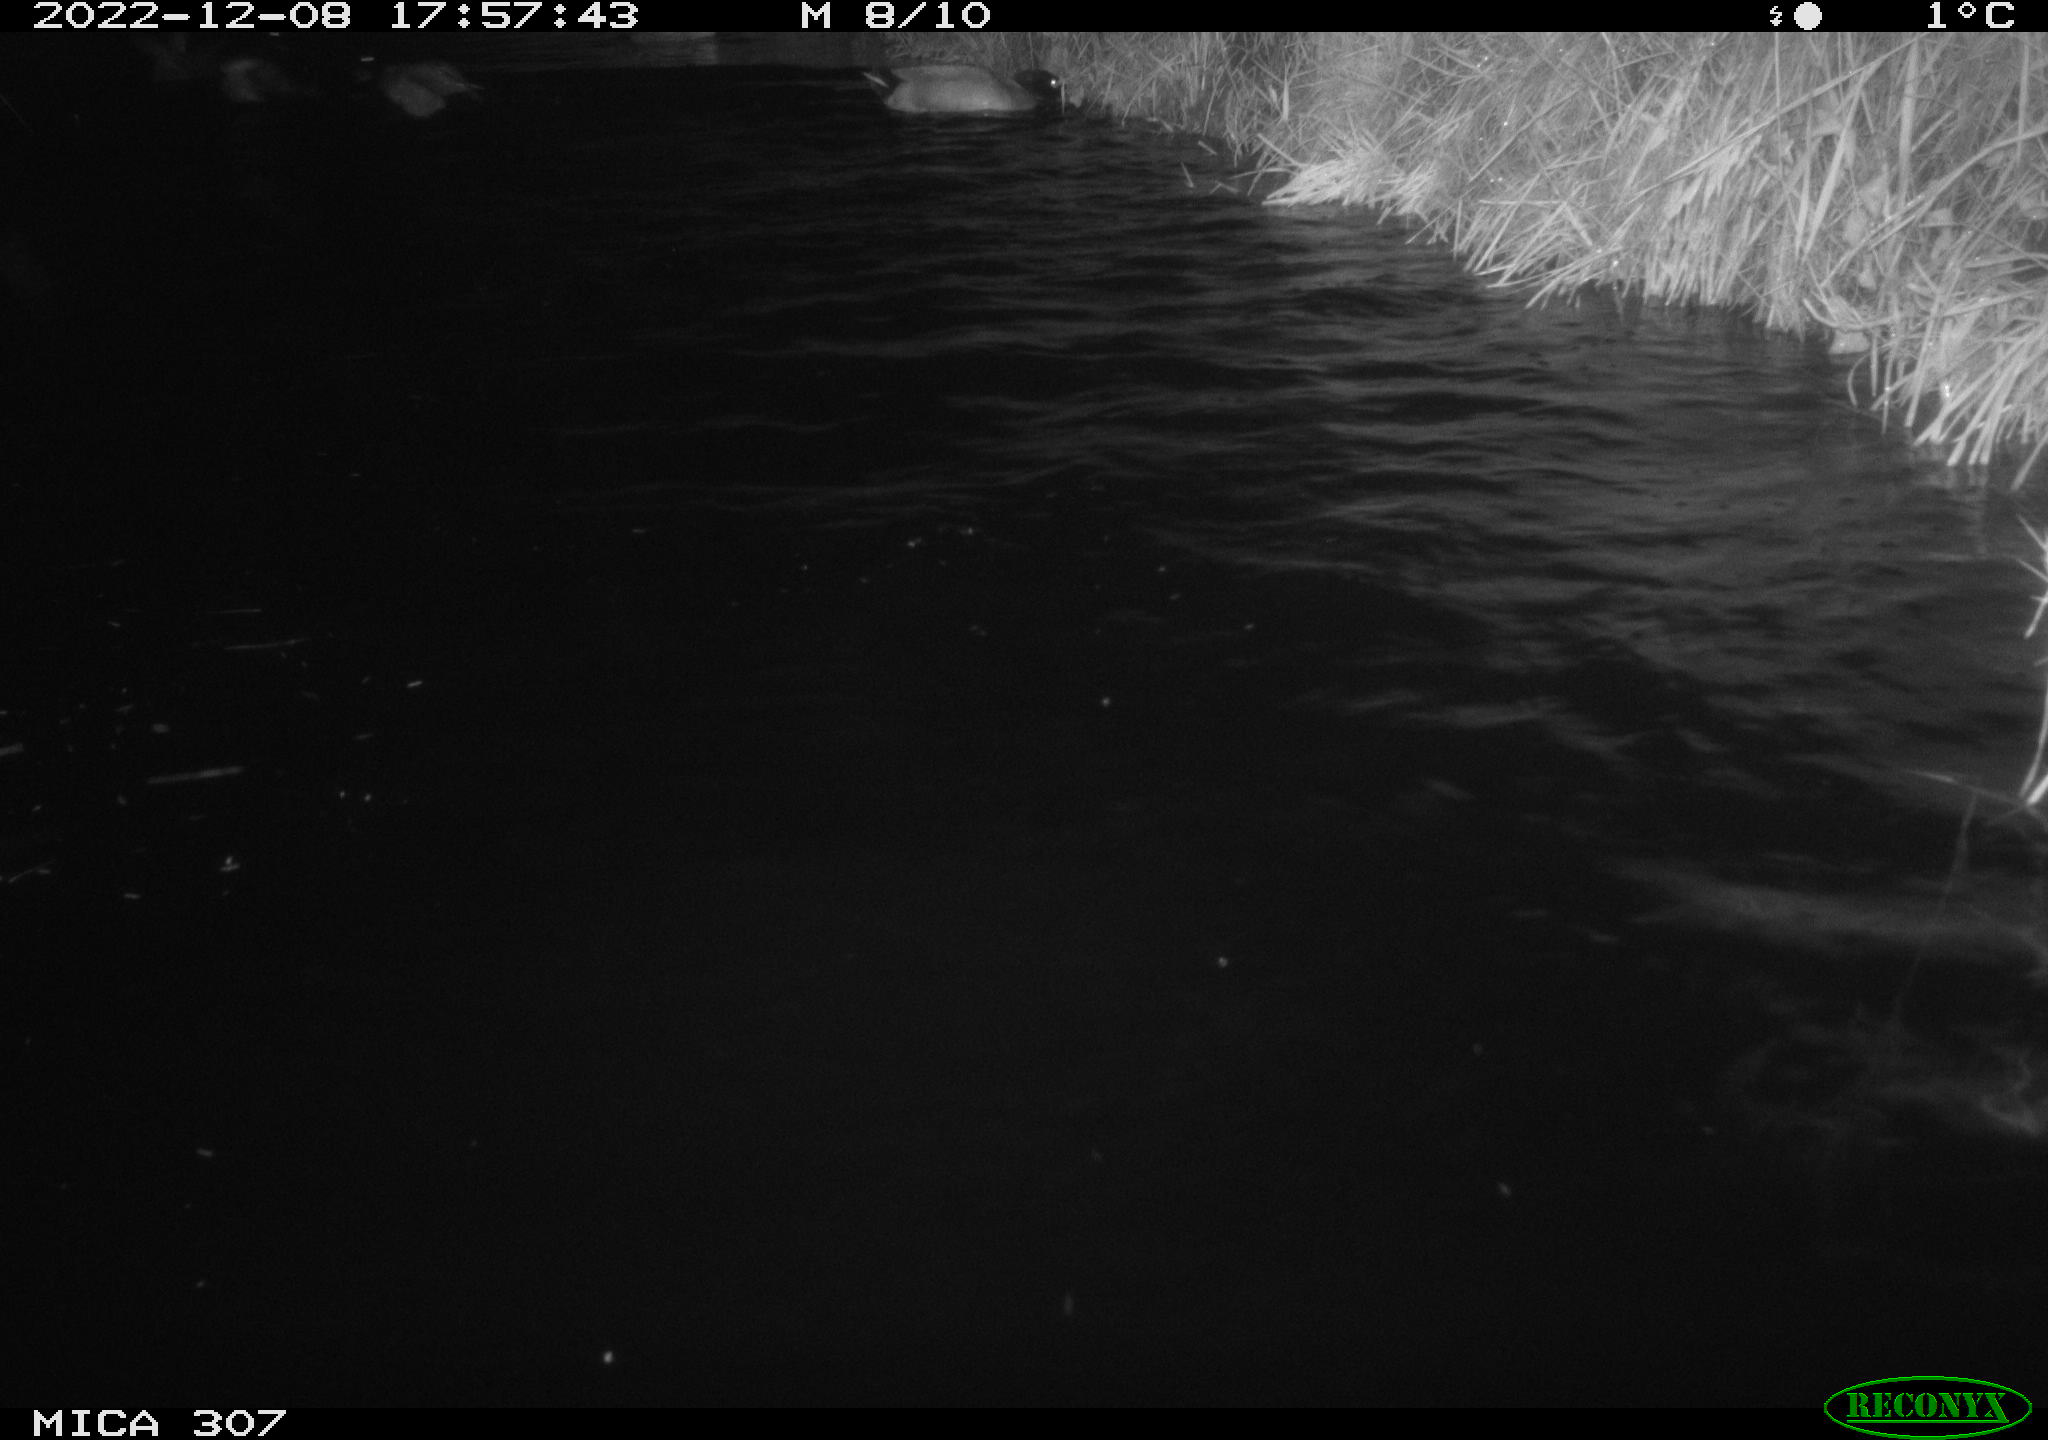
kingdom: Animalia
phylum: Chordata
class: Aves
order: Anseriformes
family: Anatidae
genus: Anas
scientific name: Anas
